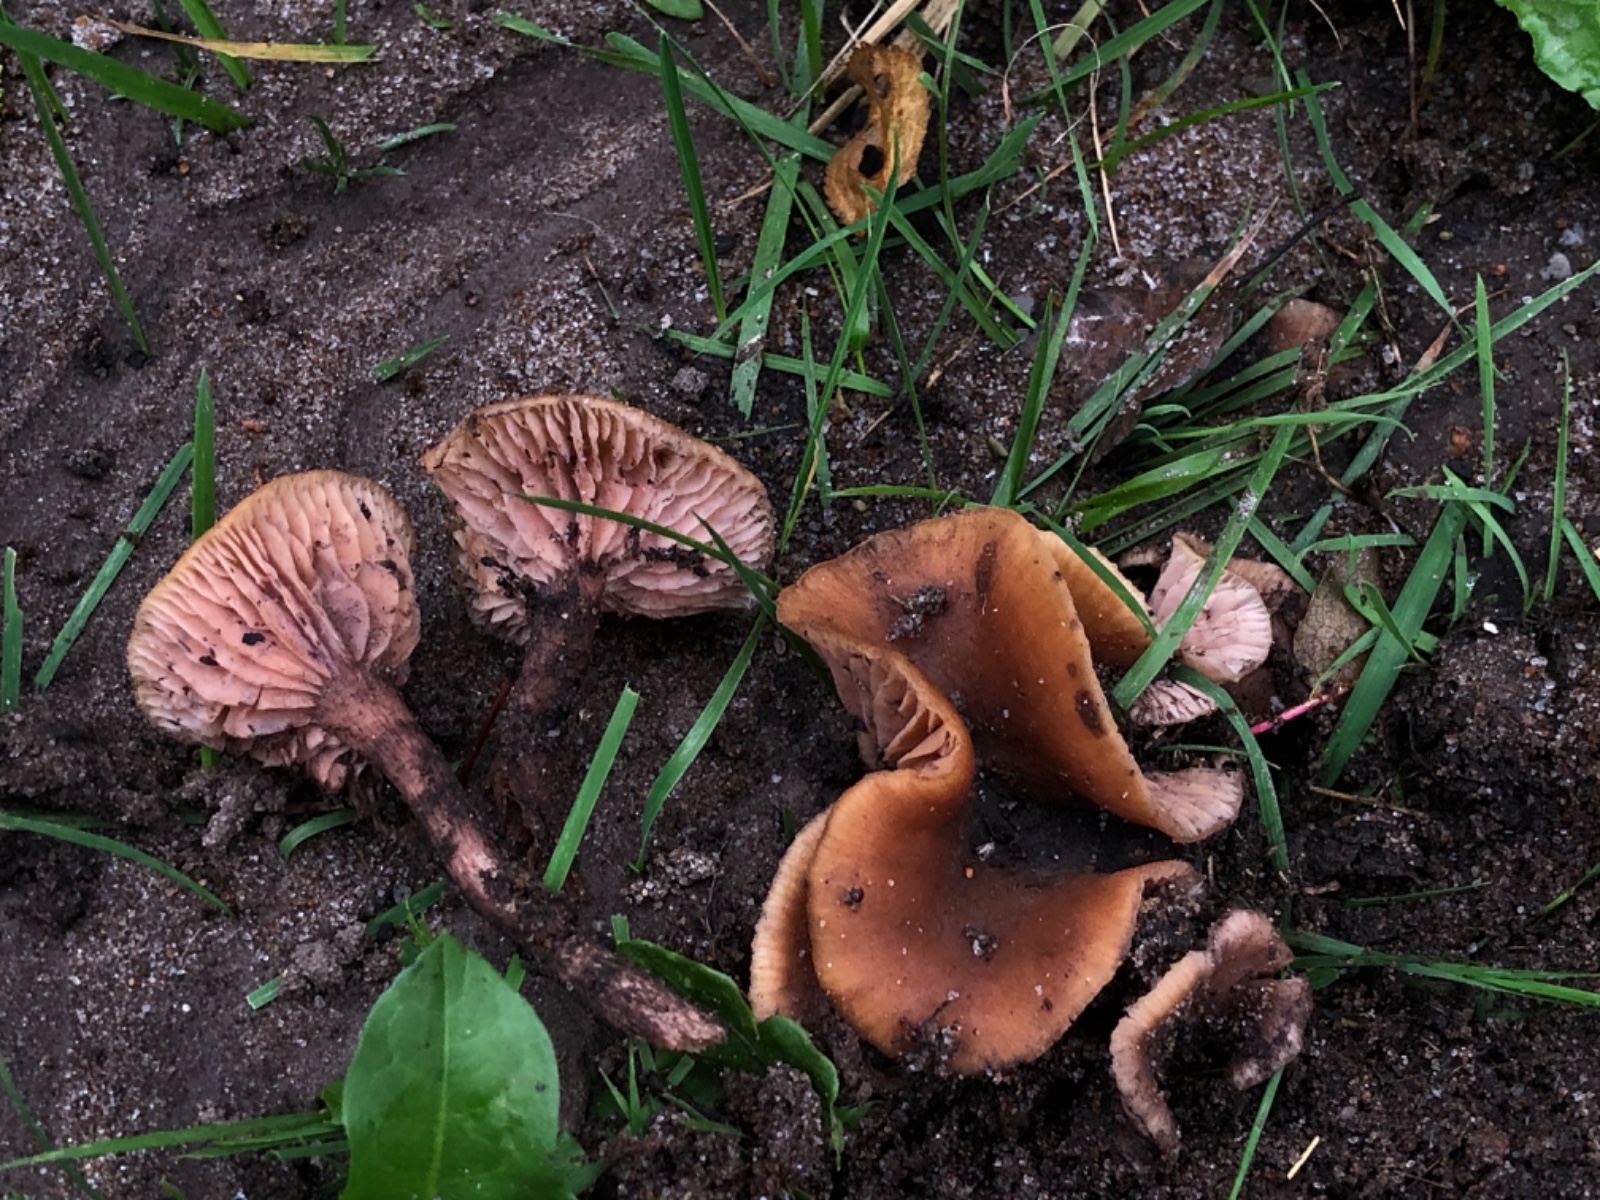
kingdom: Fungi
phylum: Basidiomycota
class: Agaricomycetes
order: Agaricales
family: Hydnangiaceae
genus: Laccaria
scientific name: Laccaria
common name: ametysthat
